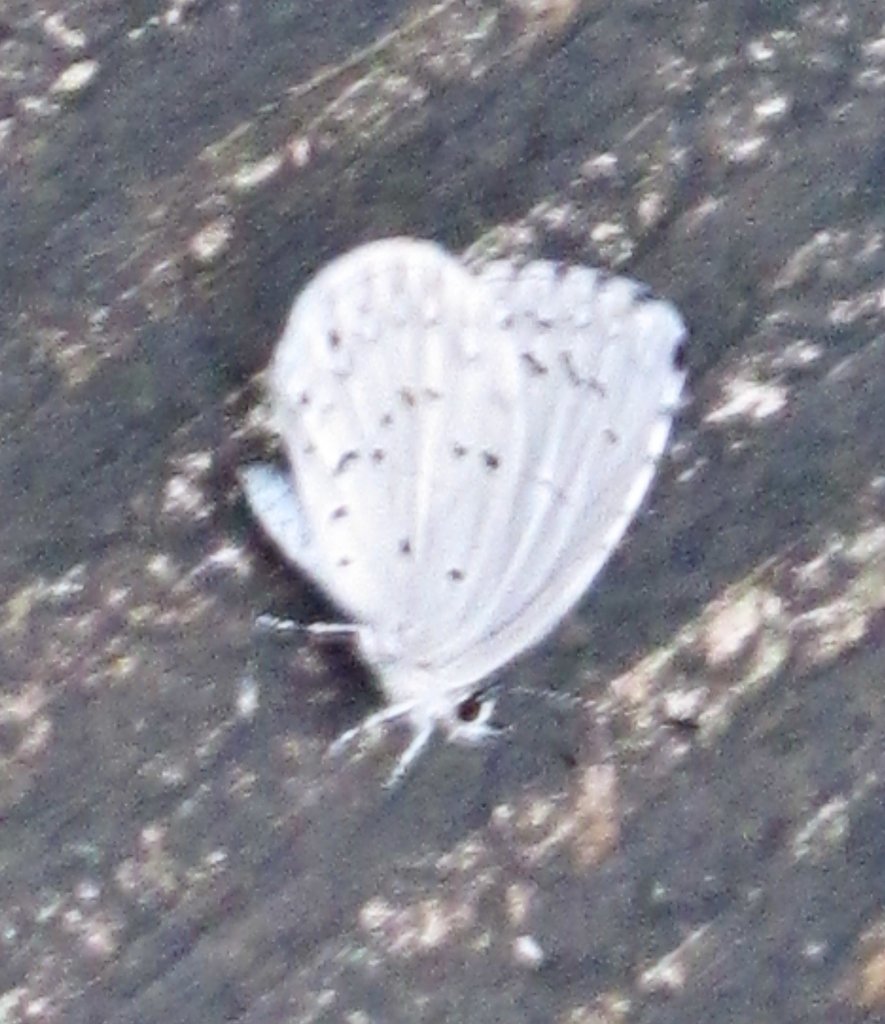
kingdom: Animalia
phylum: Arthropoda
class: Insecta
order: Lepidoptera
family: Lycaenidae
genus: Cyaniris
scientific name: Cyaniris neglecta
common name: Summer Azure
